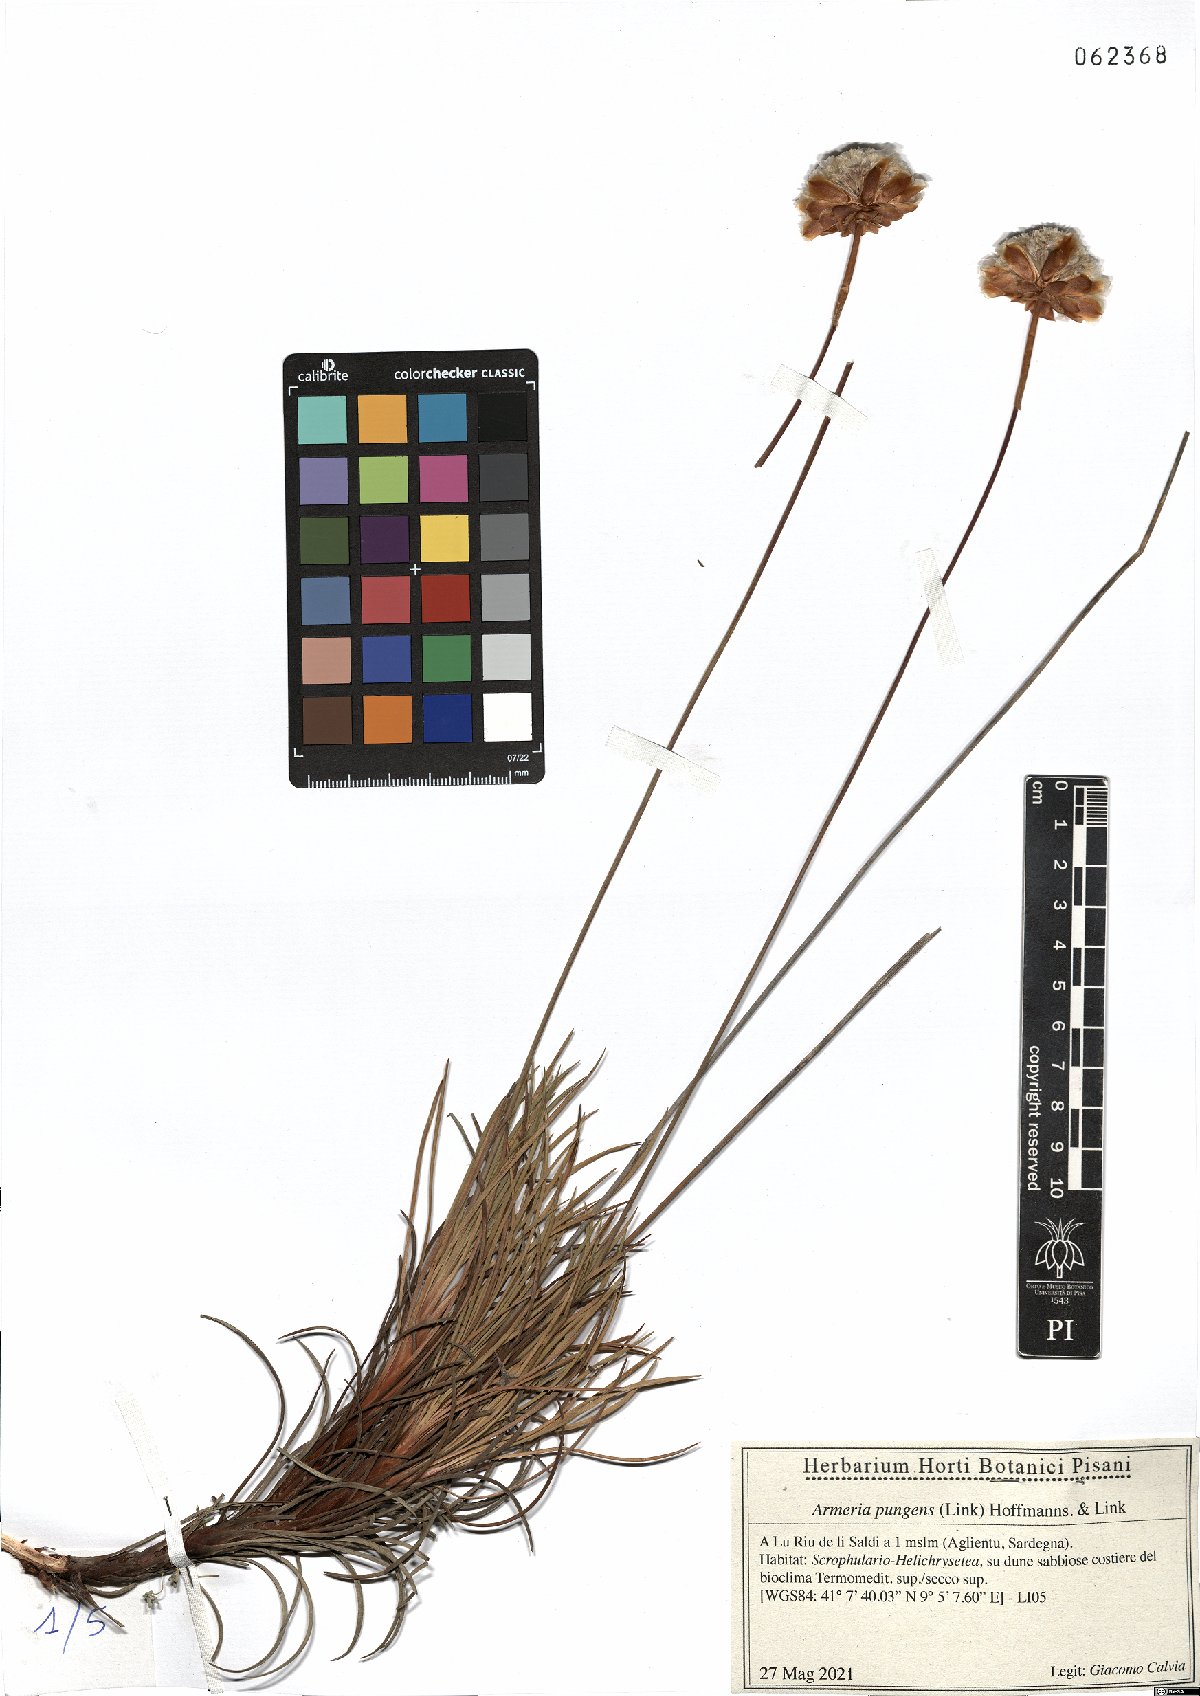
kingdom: Plantae
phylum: Tracheophyta
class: Magnoliopsida
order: Caryophyllales
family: Plumbaginaceae
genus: Armeria
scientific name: Armeria pungens
